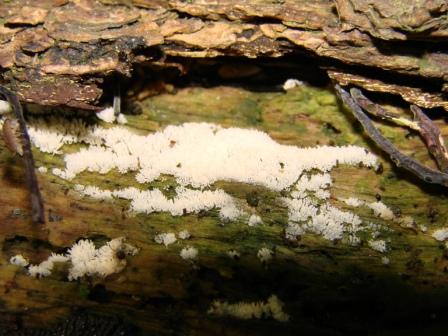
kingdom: Protozoa
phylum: Mycetozoa
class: Protosteliomycetes
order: Ceratiomyxales
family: Ceratiomyxaceae
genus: Ceratiomyxa
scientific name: Ceratiomyxa fruticulosa
